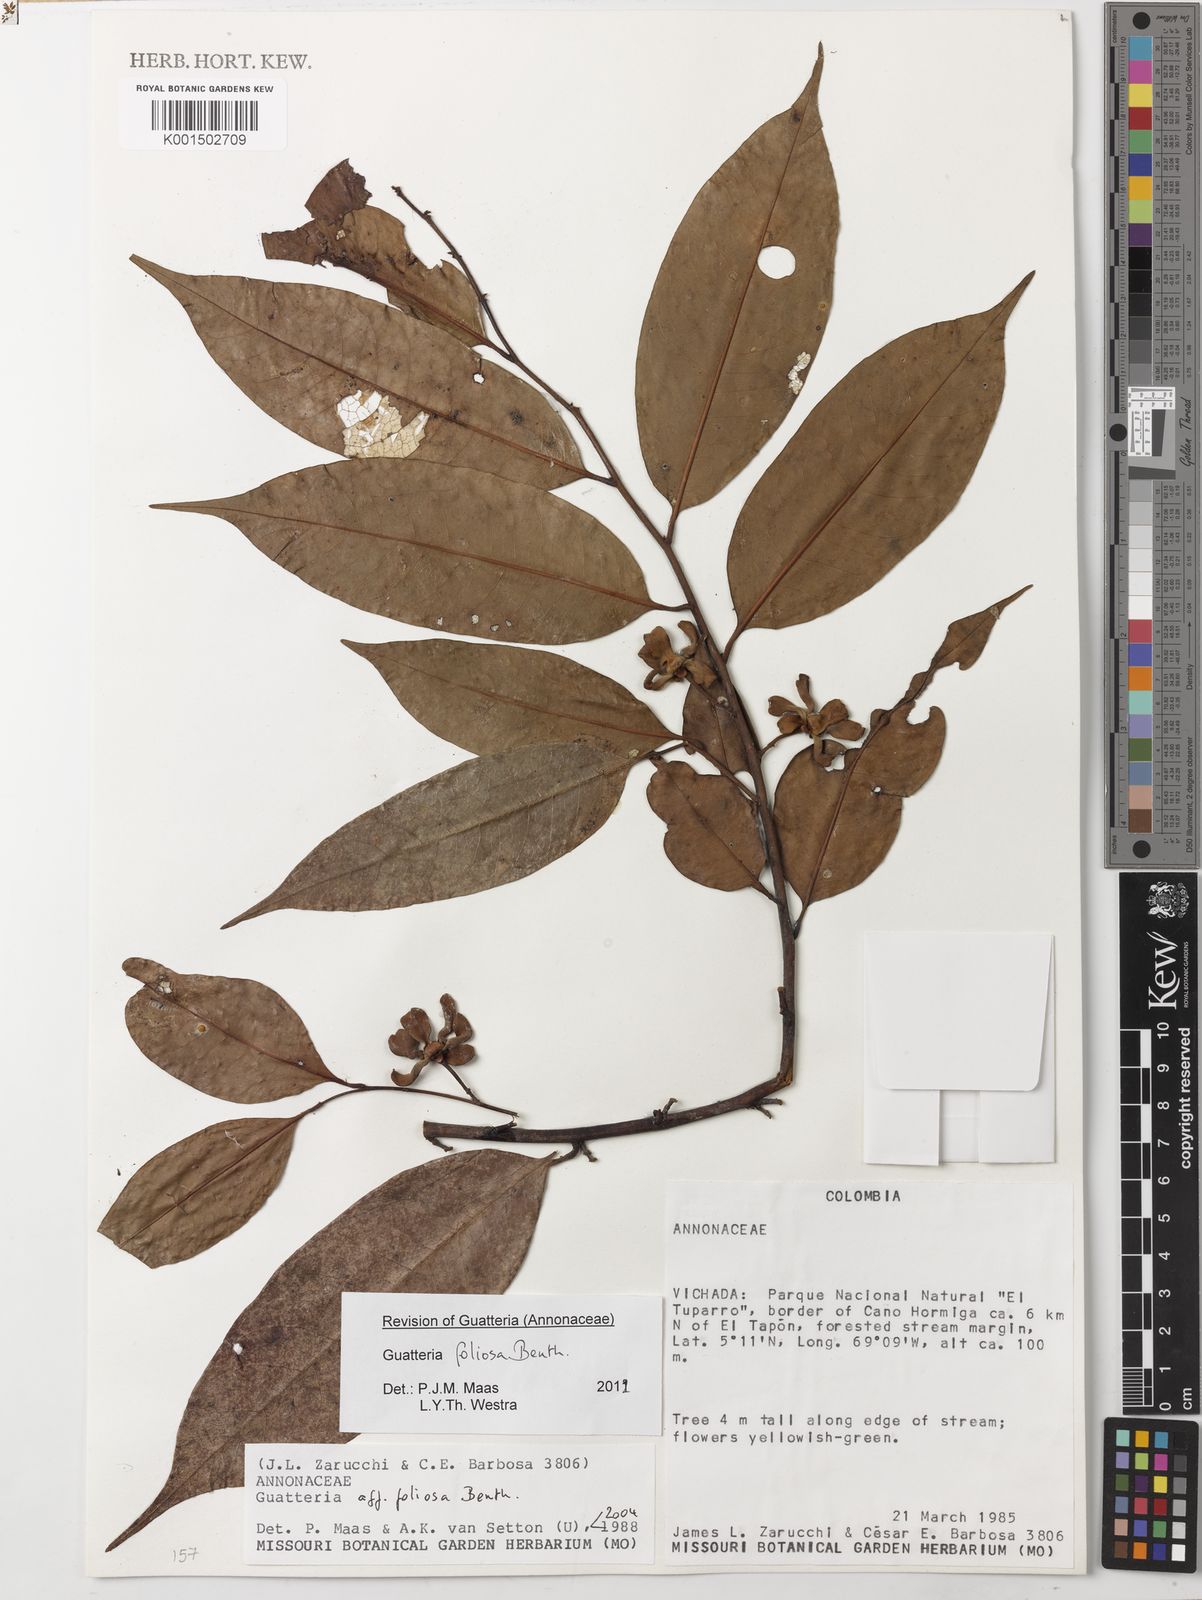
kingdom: Plantae
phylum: Tracheophyta
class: Magnoliopsida
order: Magnoliales
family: Annonaceae
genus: Guatteria
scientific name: Guatteria foliosa
